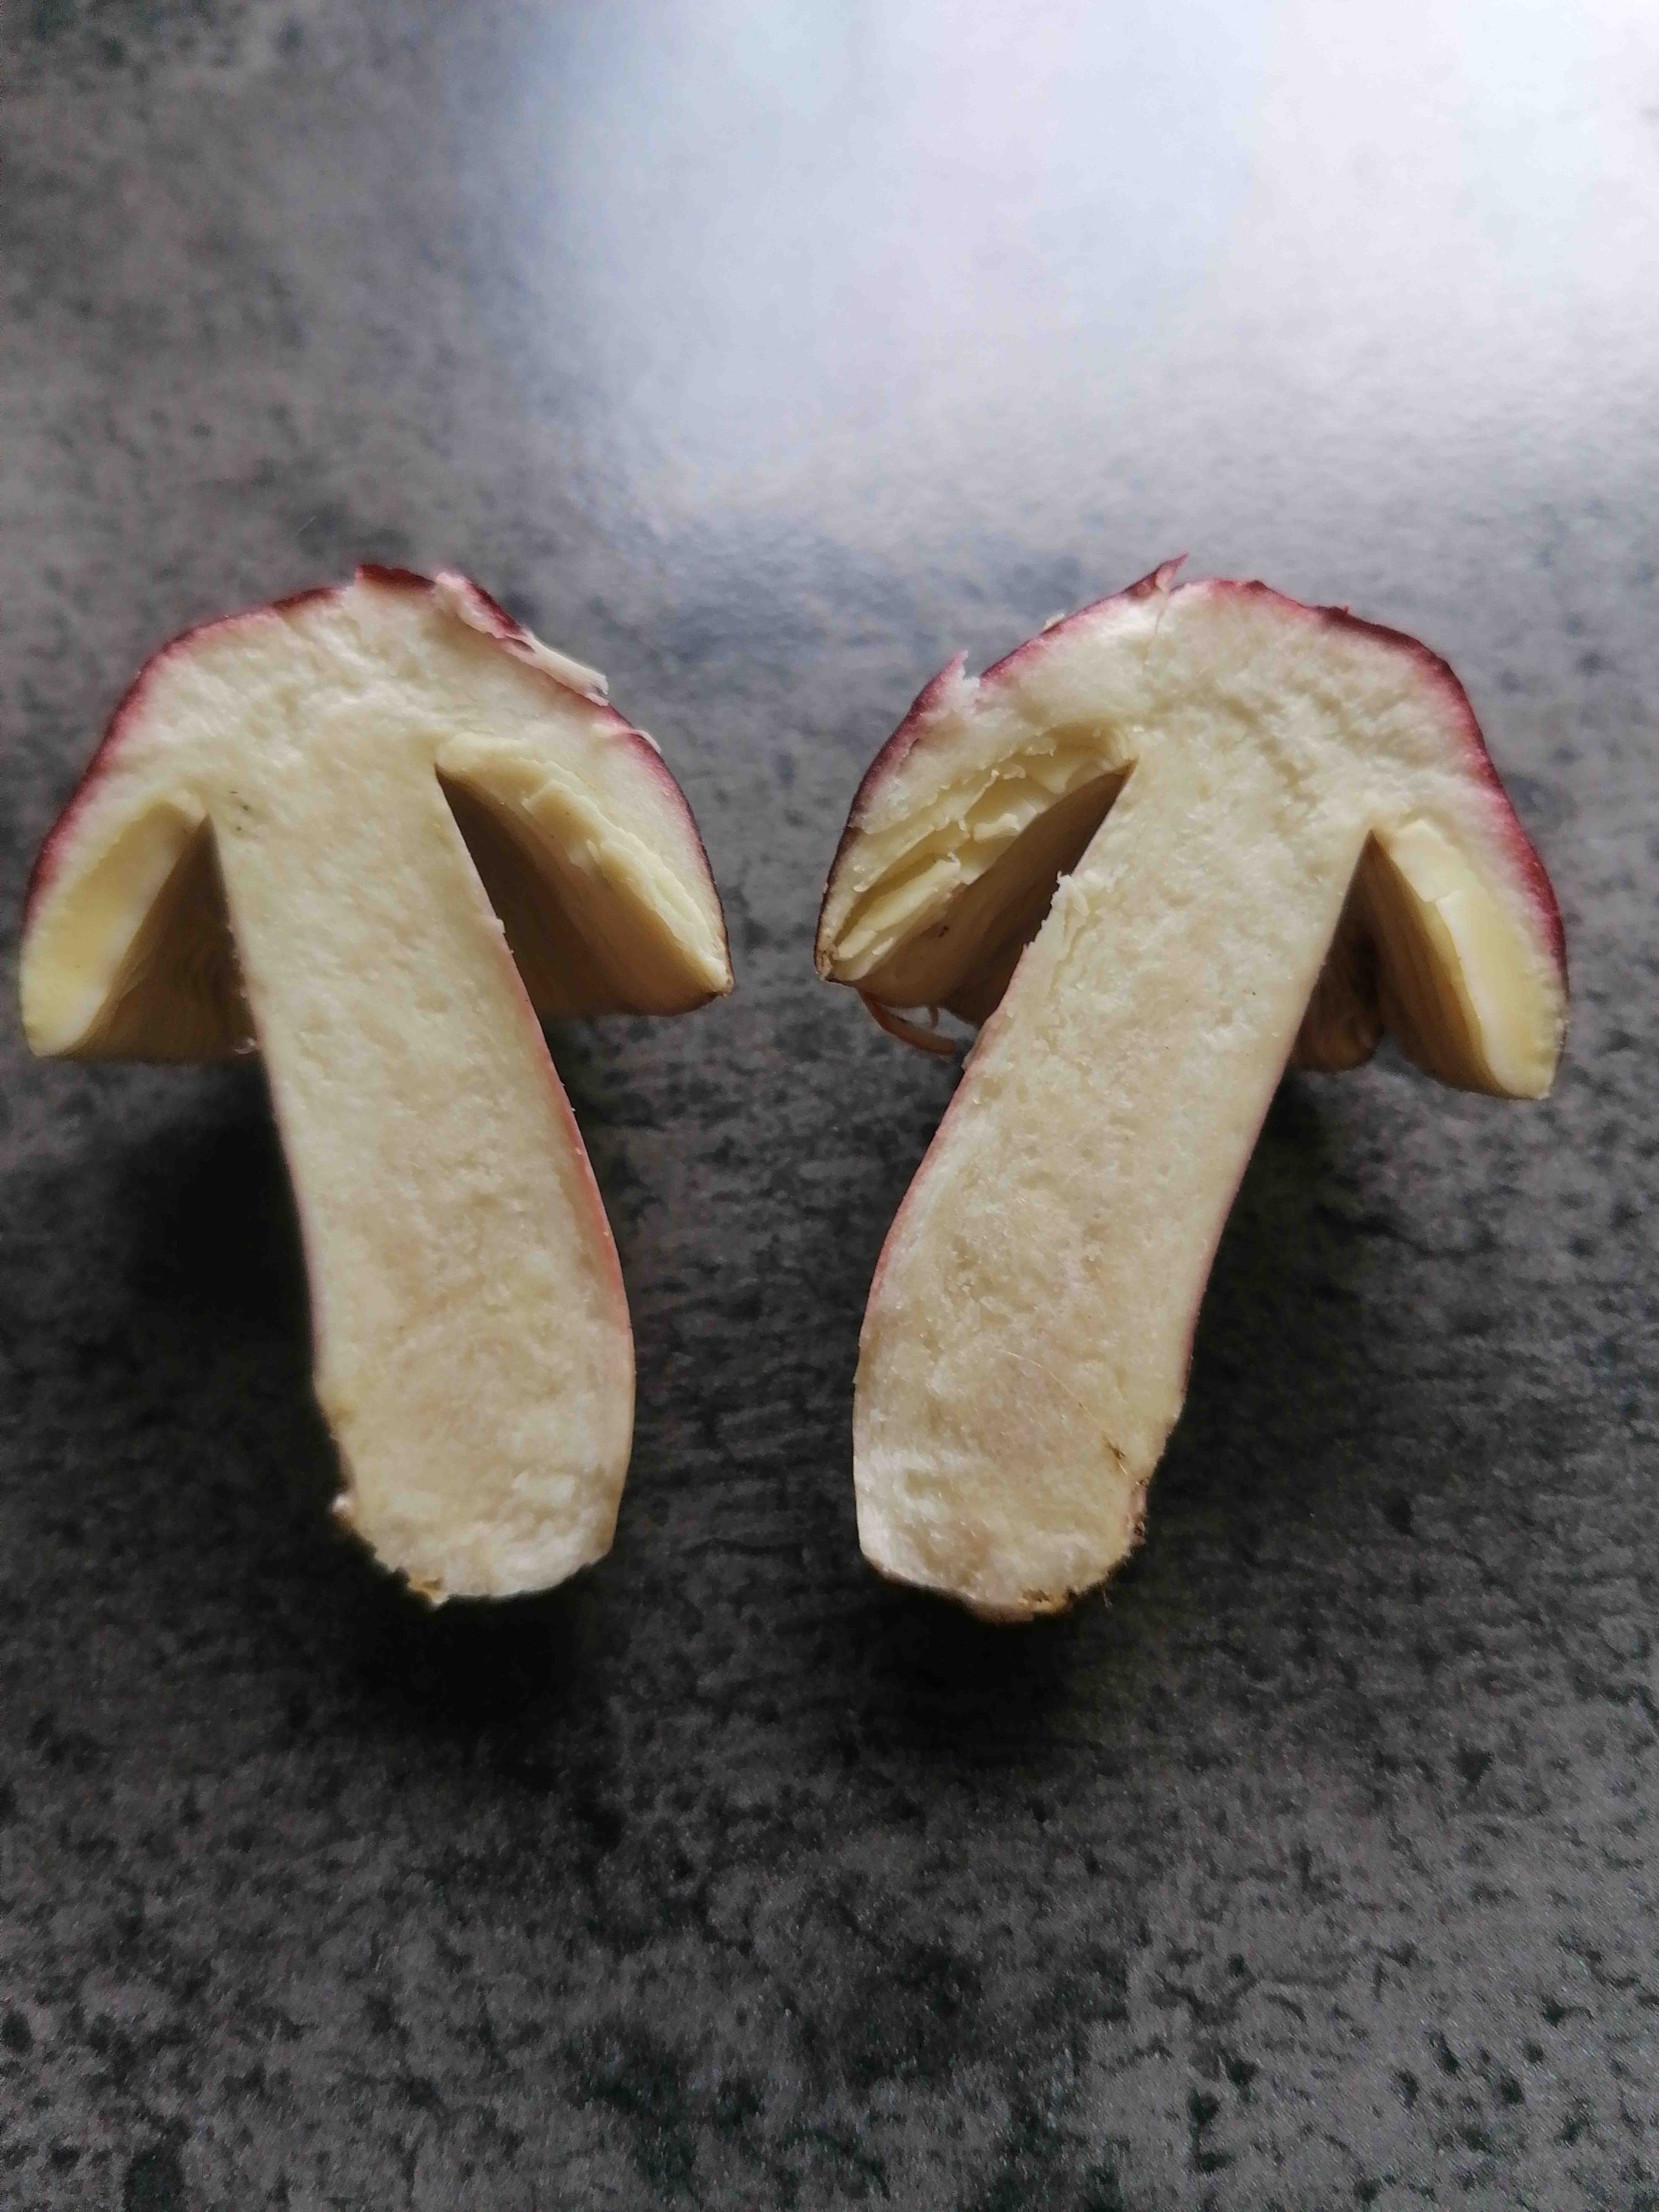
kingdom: Fungi
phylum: Basidiomycota
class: Agaricomycetes
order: Russulales
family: Russulaceae
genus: Russula
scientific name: Russula
